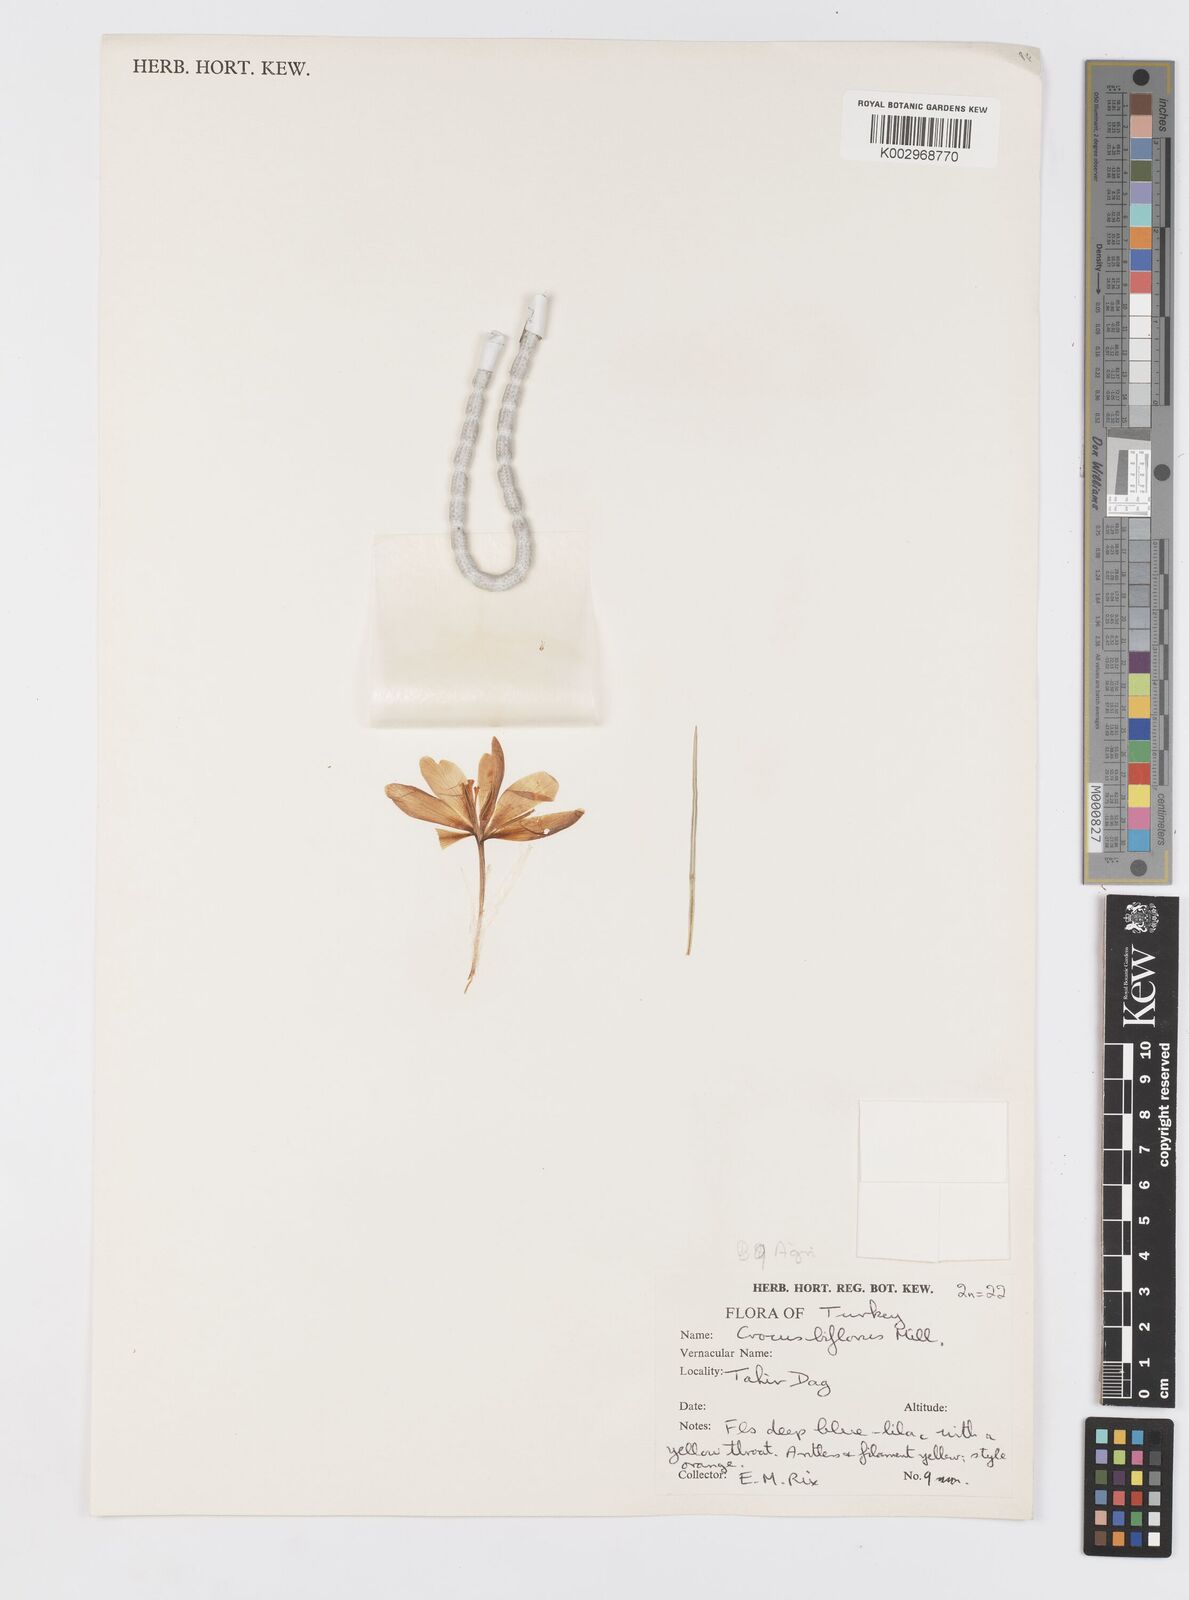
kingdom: Plantae
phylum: Tracheophyta
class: Liliopsida
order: Asparagales
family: Iridaceae
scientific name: Iridaceae
